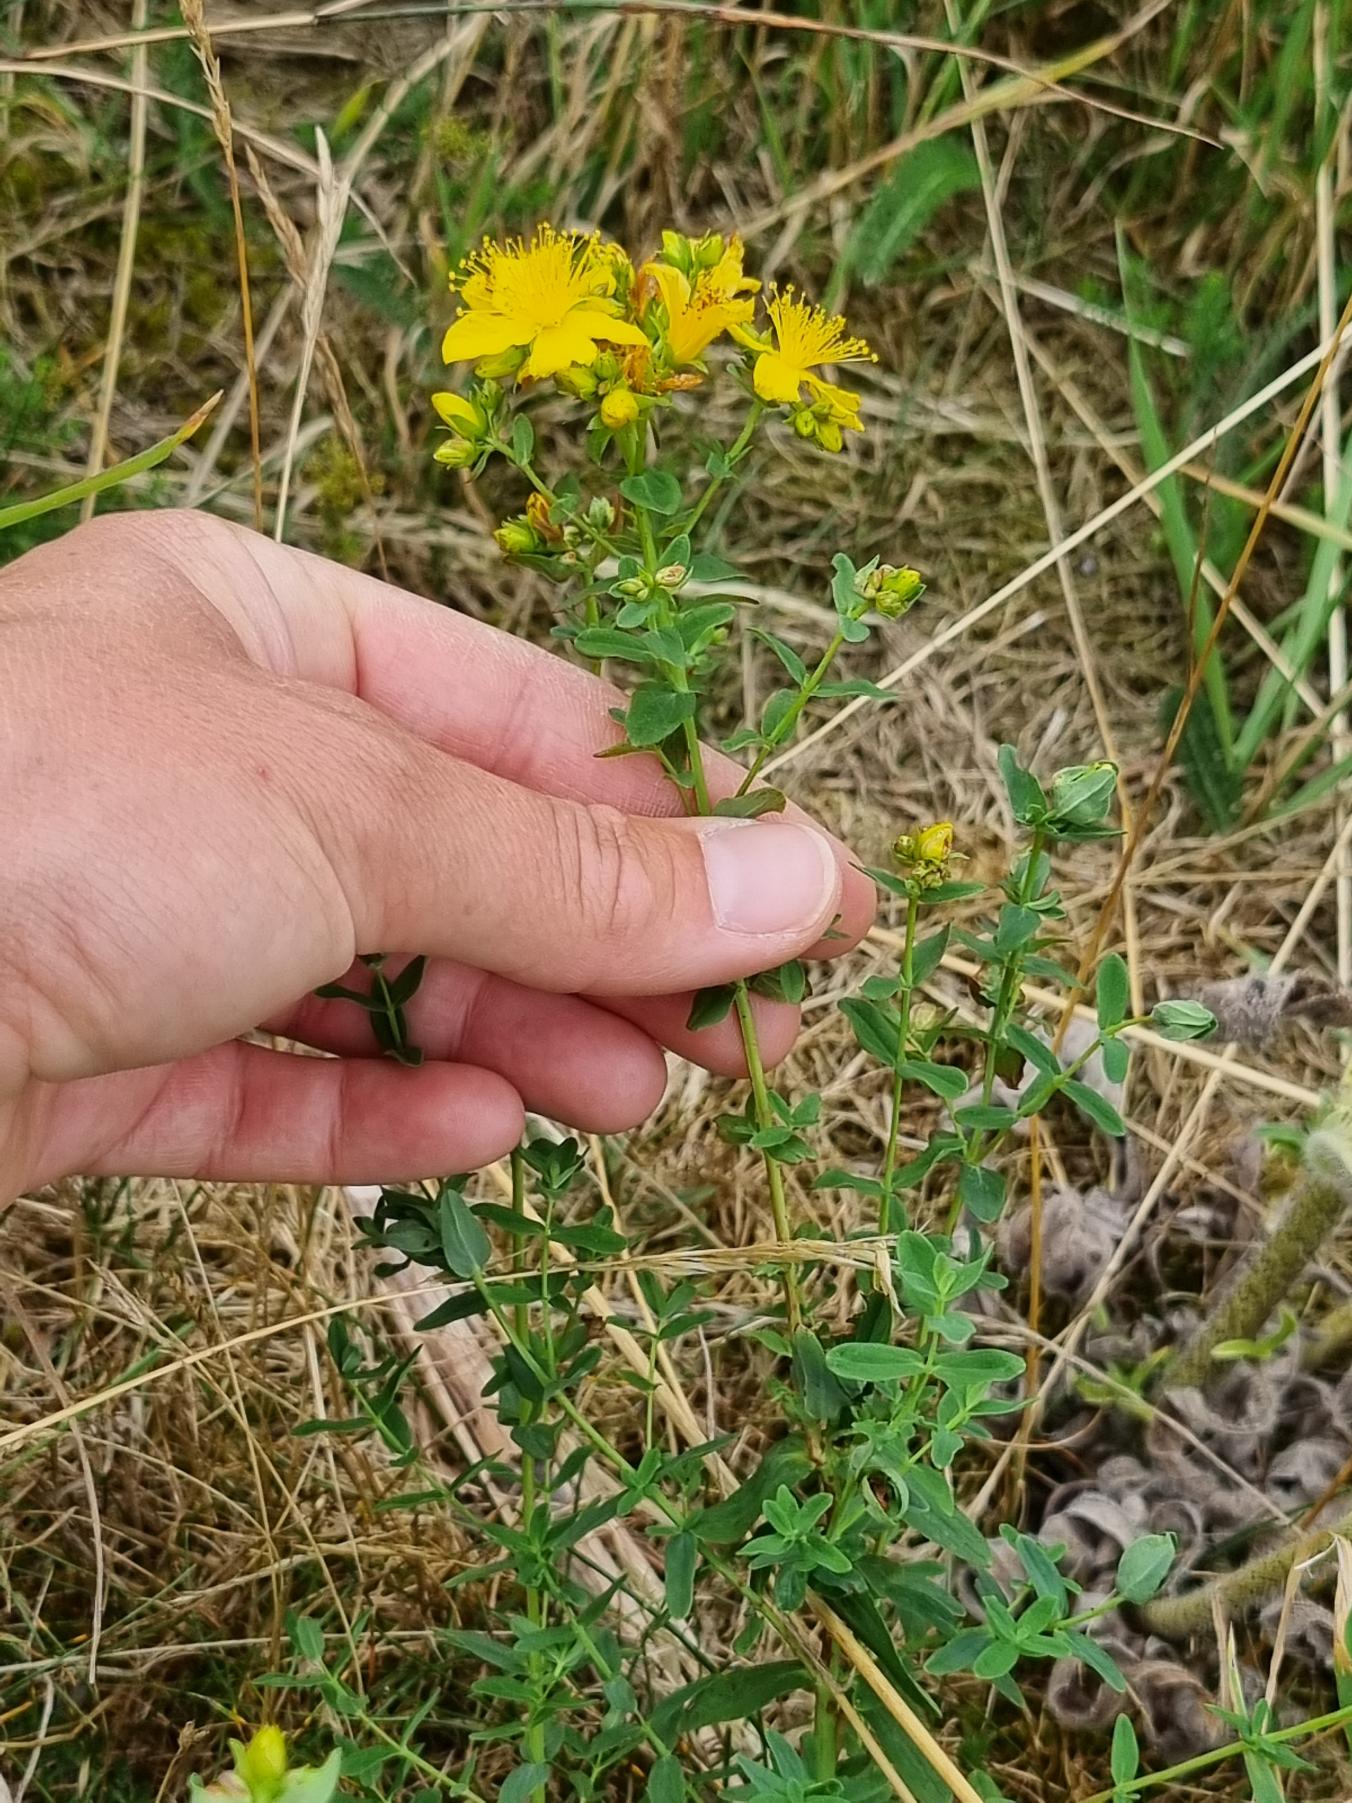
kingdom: Plantae
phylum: Tracheophyta
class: Magnoliopsida
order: Malpighiales
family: Hypericaceae
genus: Hypericum
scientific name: Hypericum perforatum
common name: Prikbladet perikon
